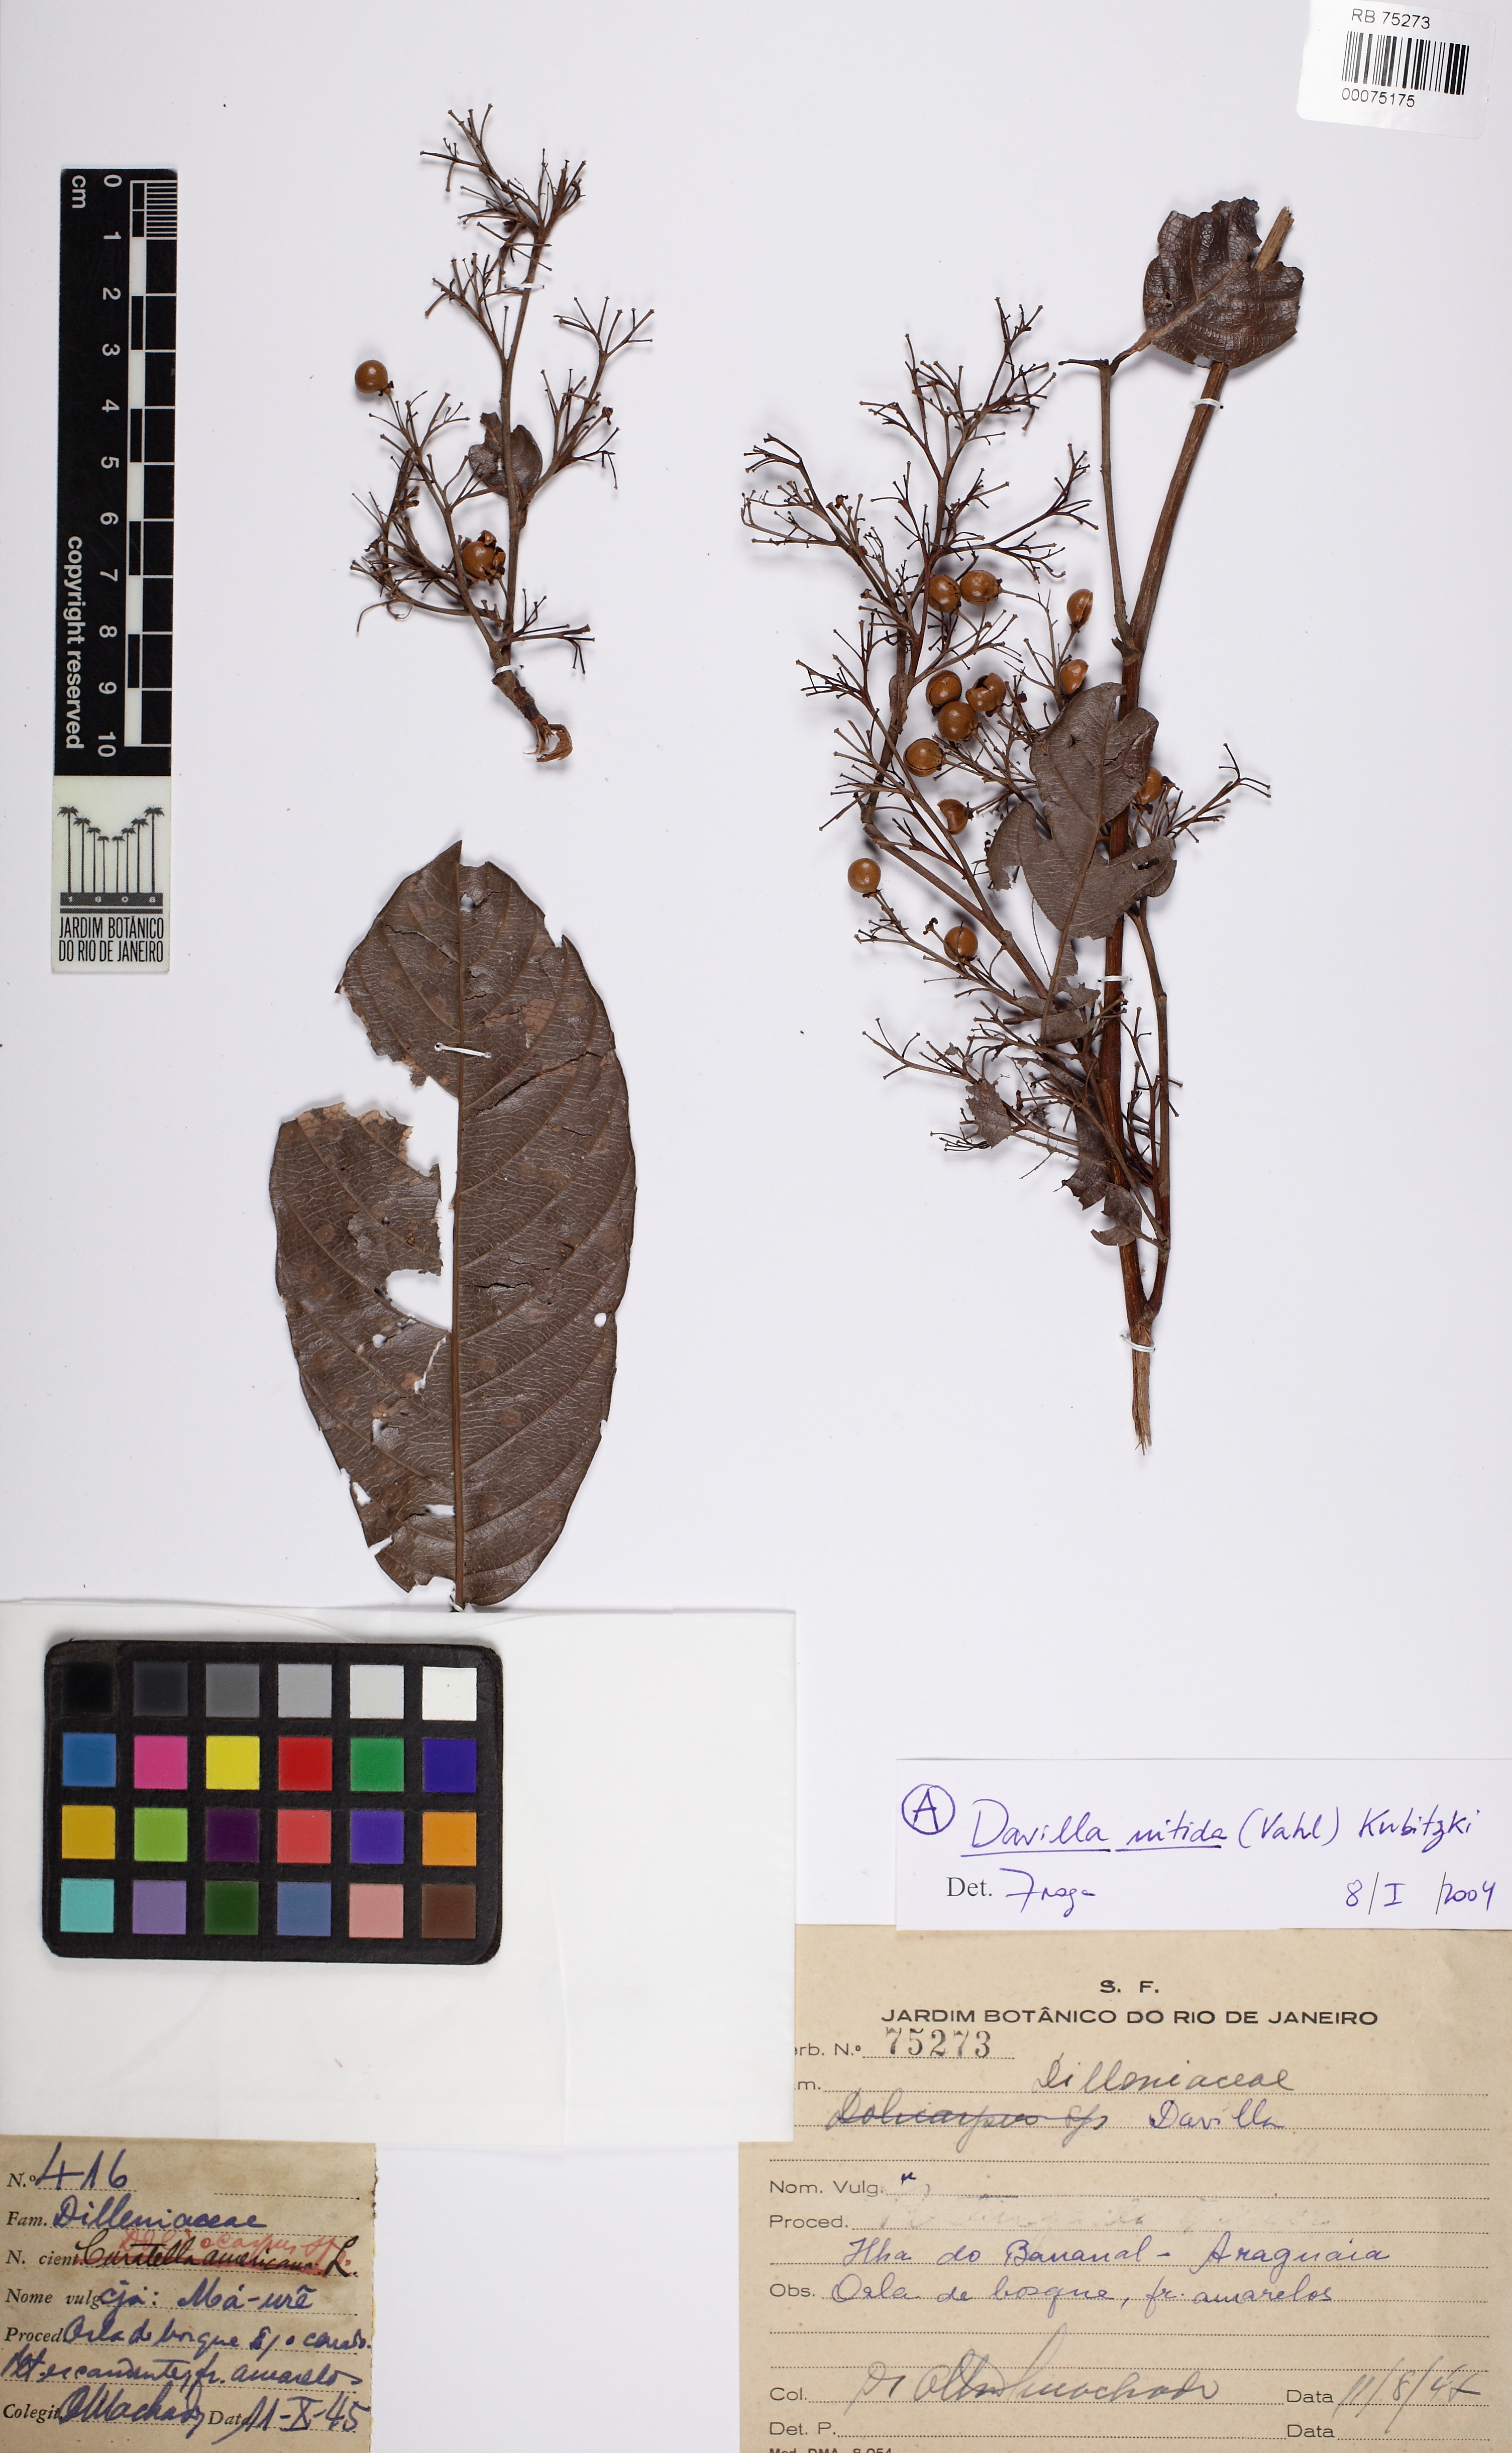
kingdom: Plantae
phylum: Tracheophyta
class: Magnoliopsida
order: Dilleniales
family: Dilleniaceae
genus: Davilla
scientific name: Davilla nitida
